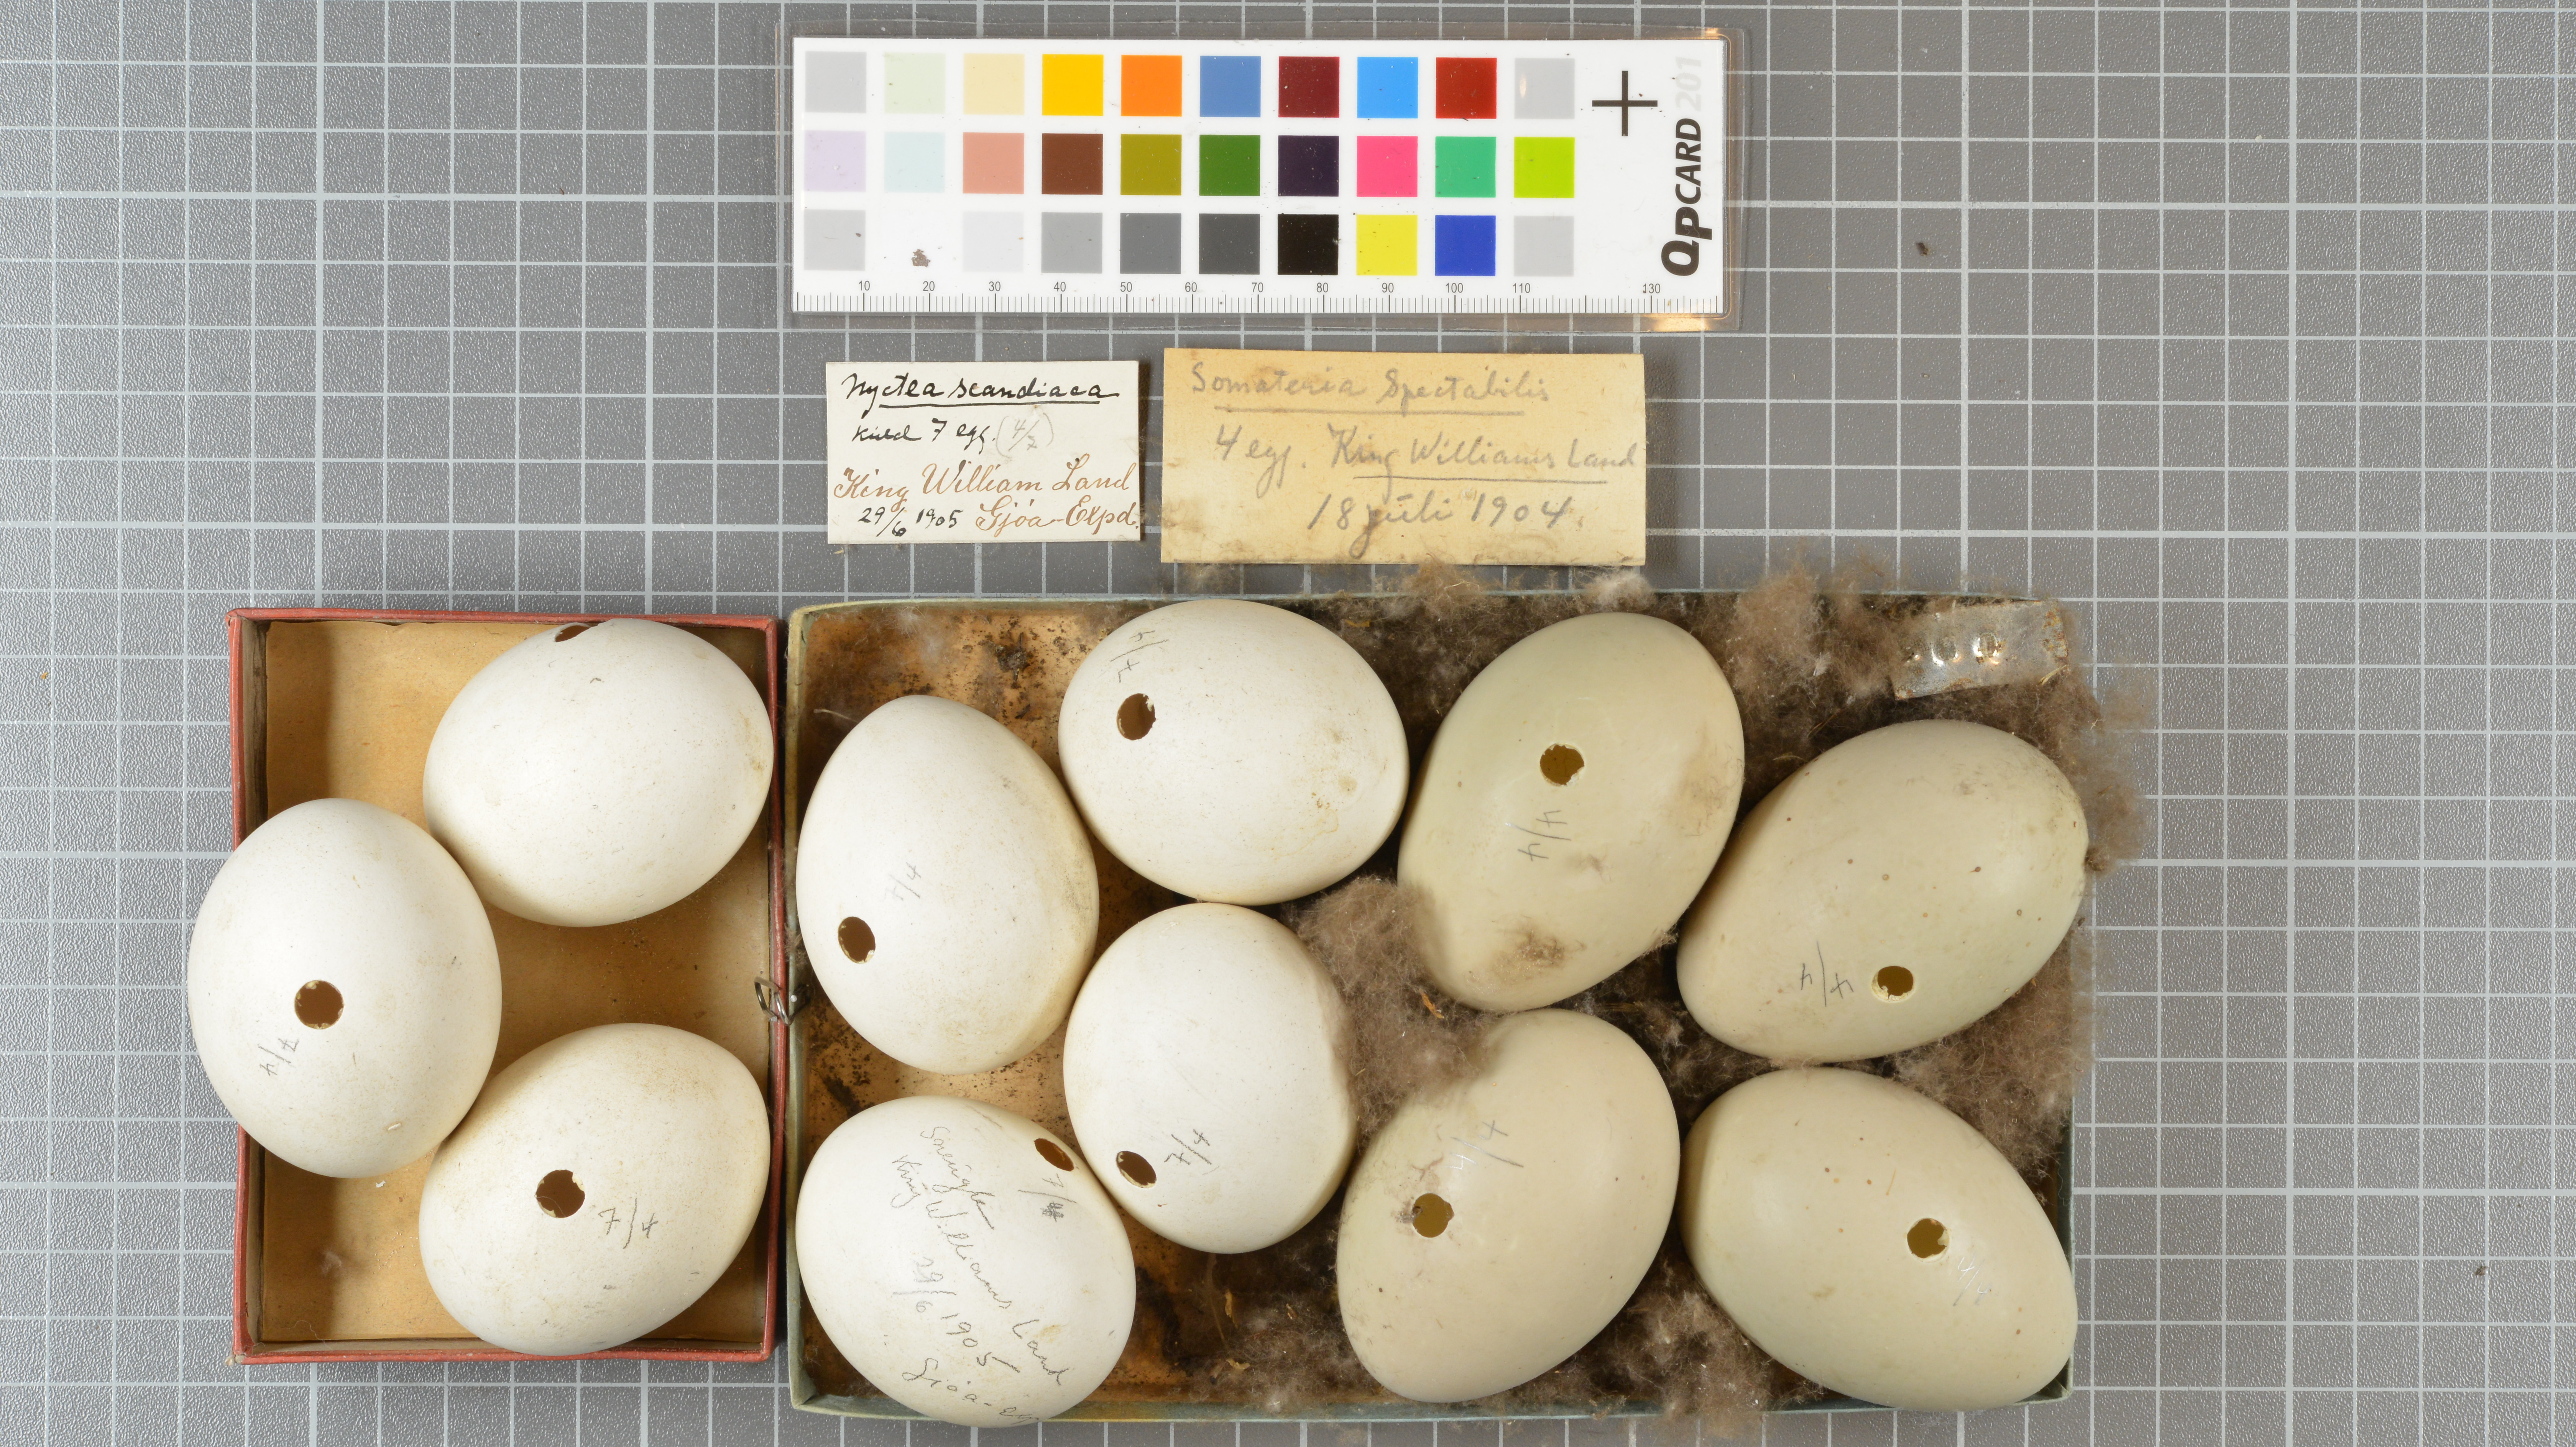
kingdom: Animalia
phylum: Chordata
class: Aves
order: Strigiformes
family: Strigidae
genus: Bubo
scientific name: Bubo scandiacus
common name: Snowy owl
